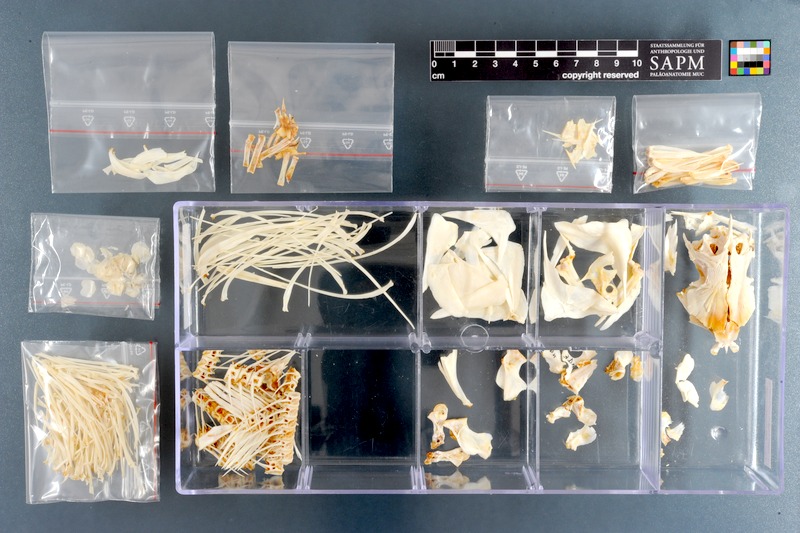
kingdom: Animalia
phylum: Chordata
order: Characiformes
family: Distichodontidae
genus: Distichodus
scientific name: Distichodus nefasch
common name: Nile distichodus
